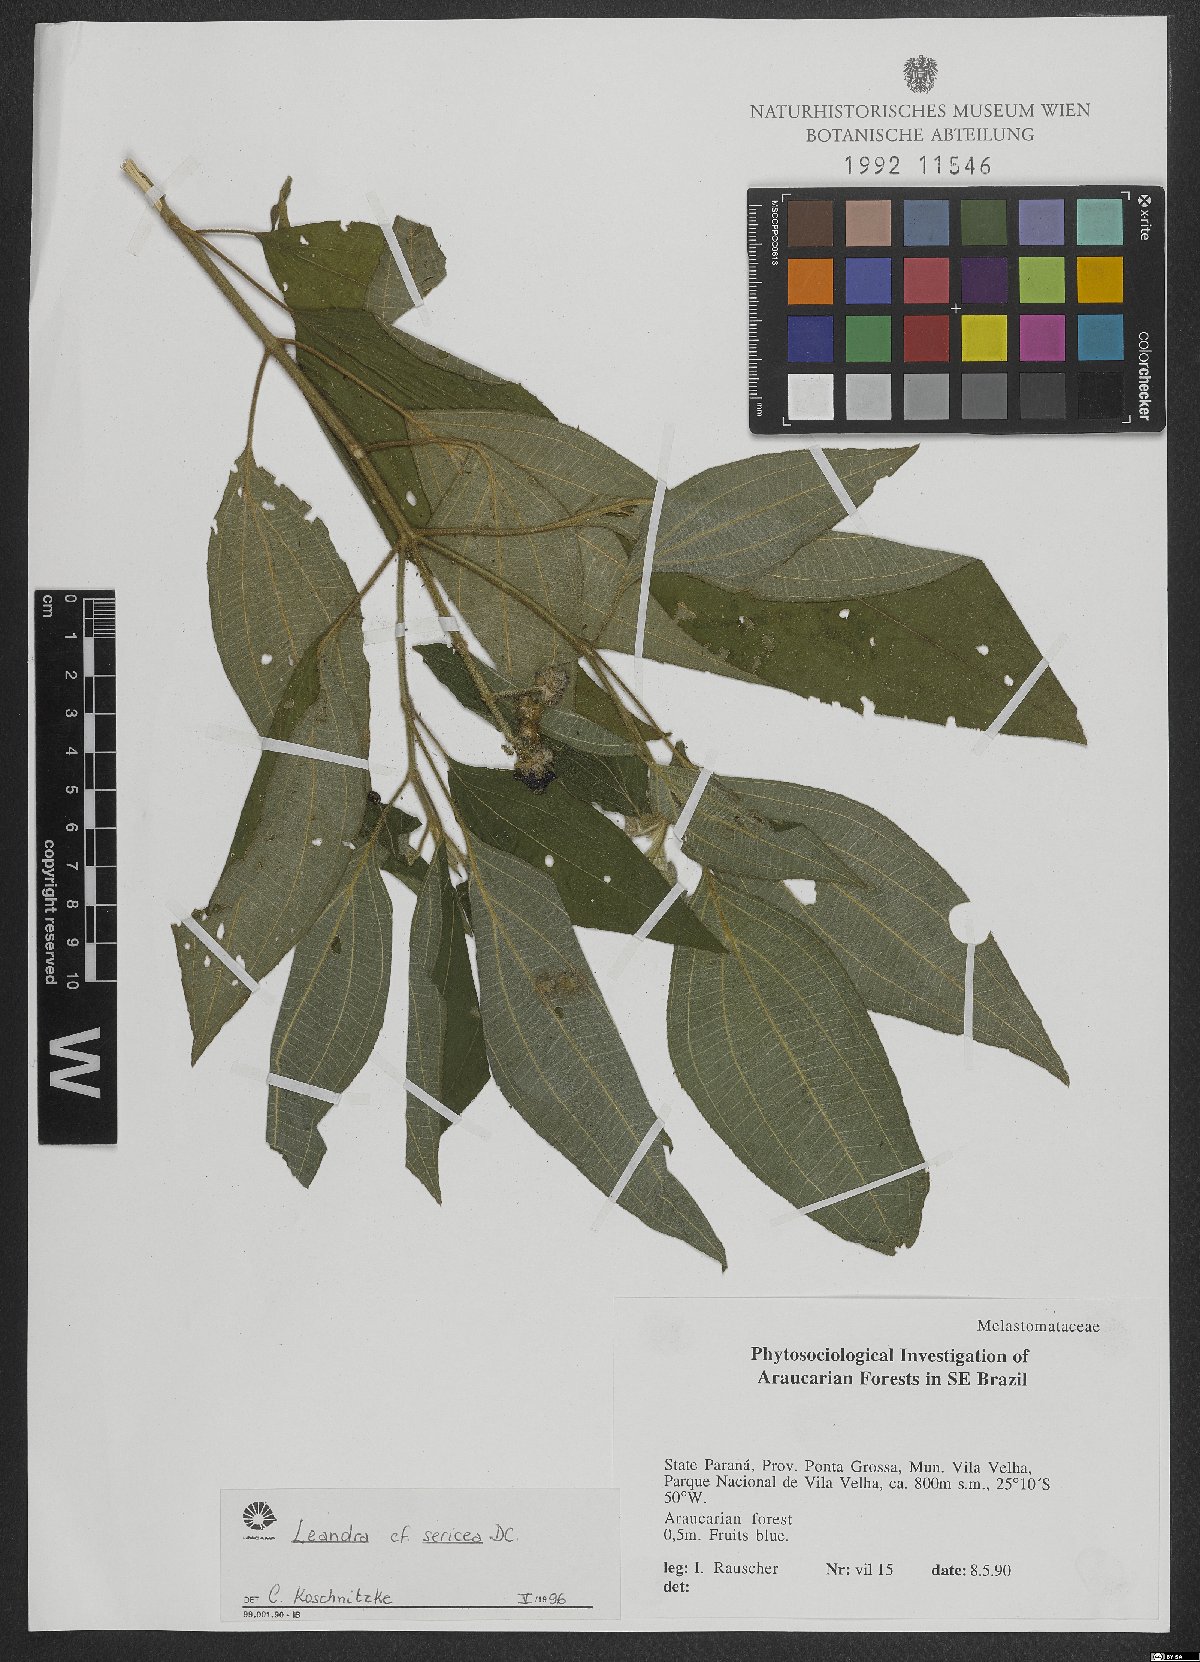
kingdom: Plantae
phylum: Tracheophyta
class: Magnoliopsida
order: Myrtales
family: Melastomataceae
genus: Miconia
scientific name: Miconia raddii
